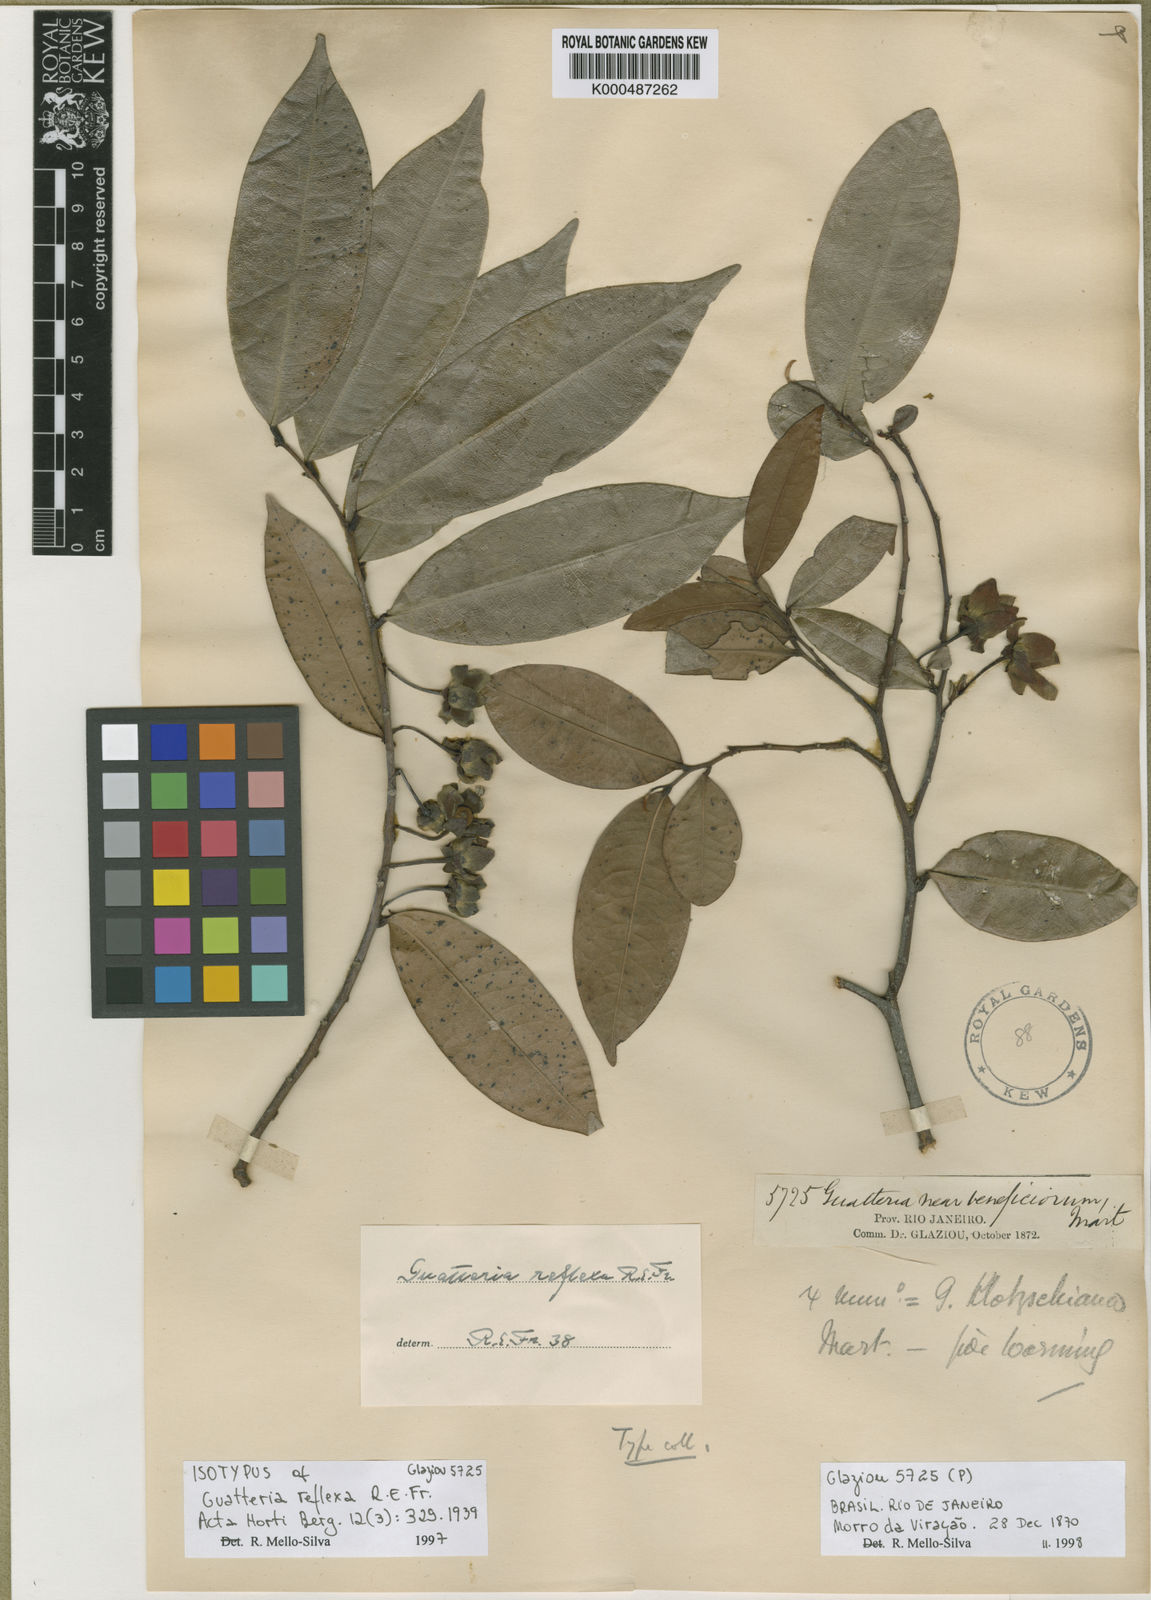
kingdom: Plantae
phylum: Tracheophyta
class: Magnoliopsida
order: Magnoliales
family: Annonaceae
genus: Guatteria
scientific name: Guatteria australis
